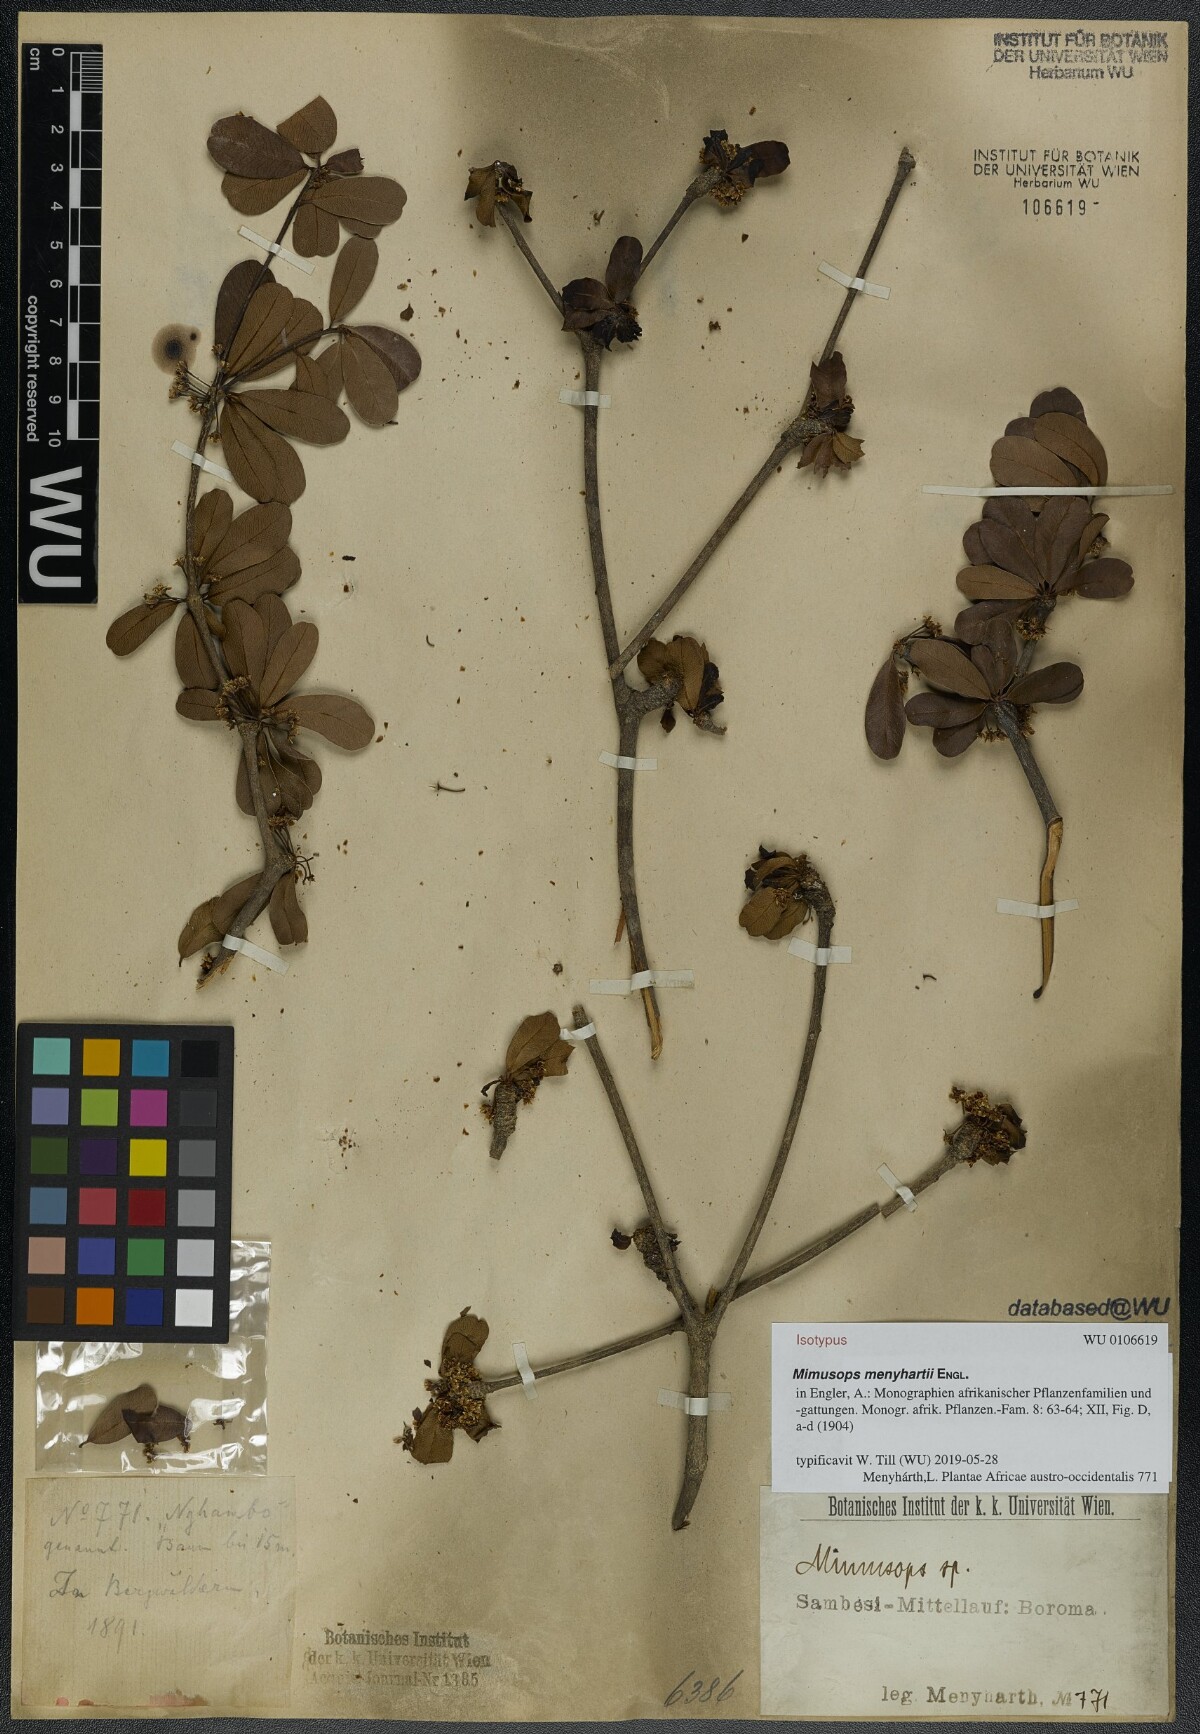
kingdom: Plantae
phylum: Tracheophyta
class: Magnoliopsida
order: Ericales
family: Sapotaceae
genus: Manilkara
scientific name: Manilkara mochisia
